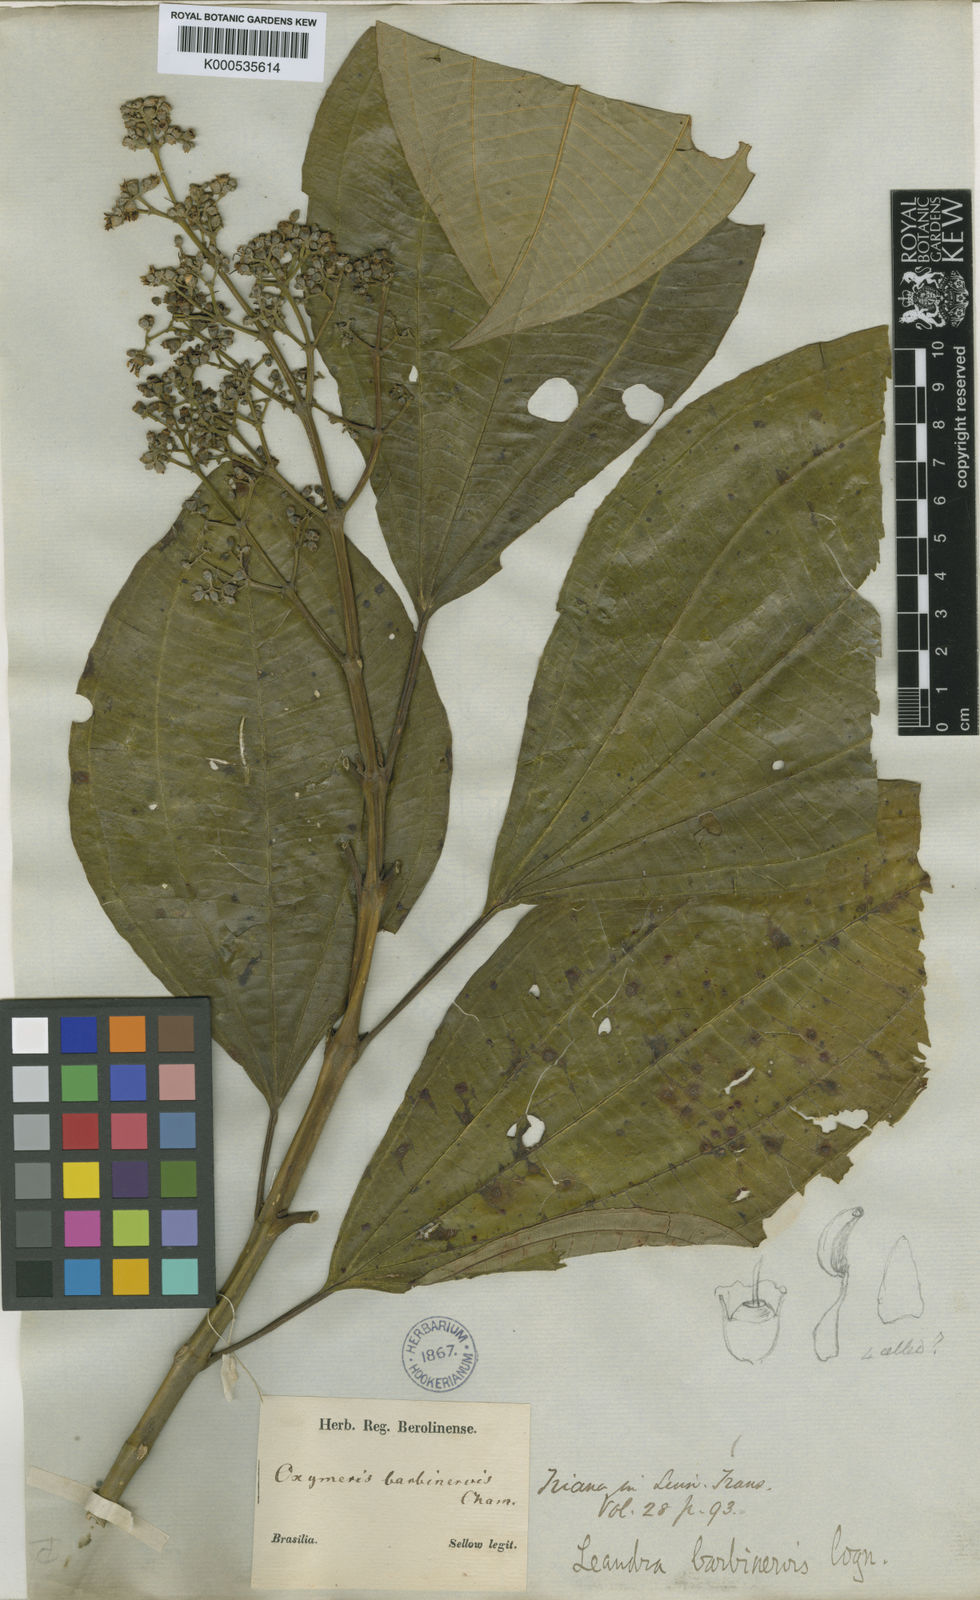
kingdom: Plantae
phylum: Tracheophyta
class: Magnoliopsida
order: Myrtales
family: Melastomataceae
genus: Miconia
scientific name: Miconia trauninensis
